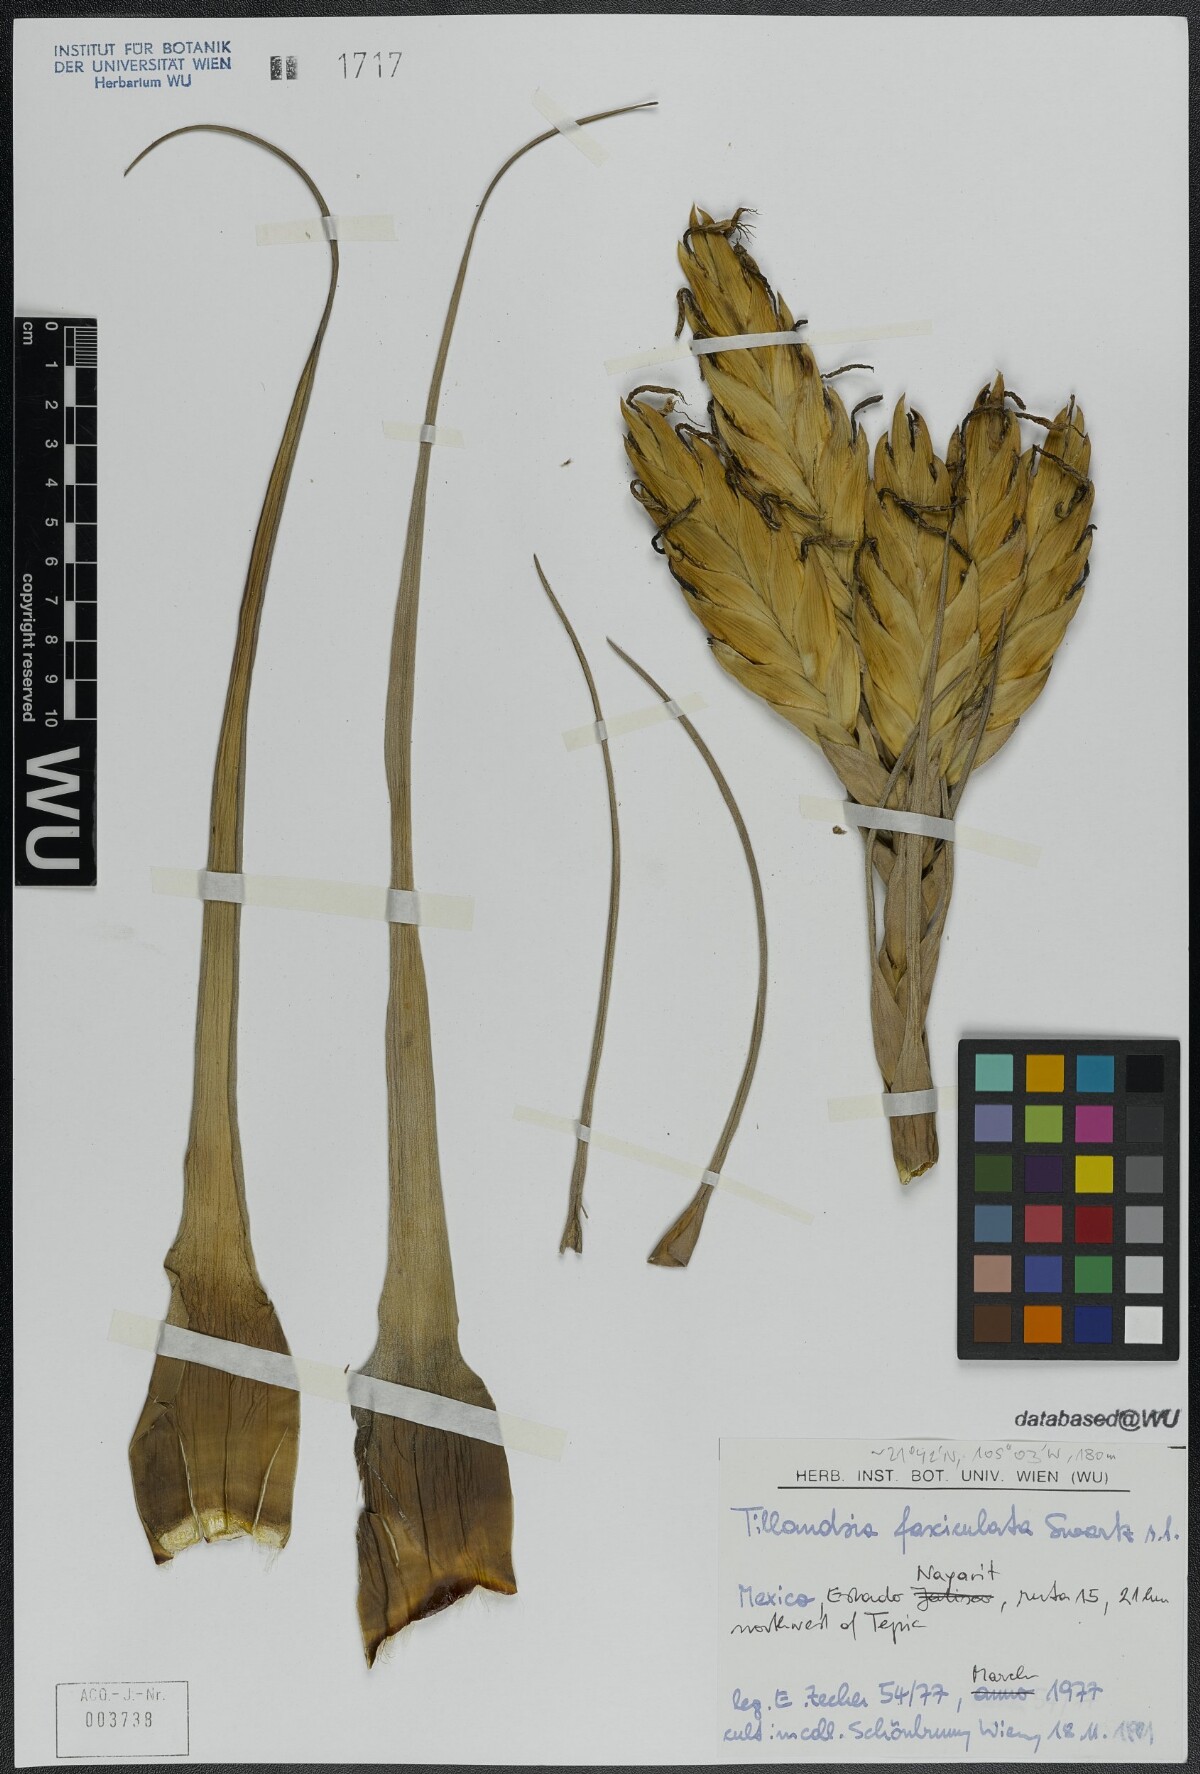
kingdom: Plantae
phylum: Tracheophyta
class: Liliopsida
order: Poales
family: Bromeliaceae
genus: Tillandsia
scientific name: Tillandsia fasciculata
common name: Giant airplant
